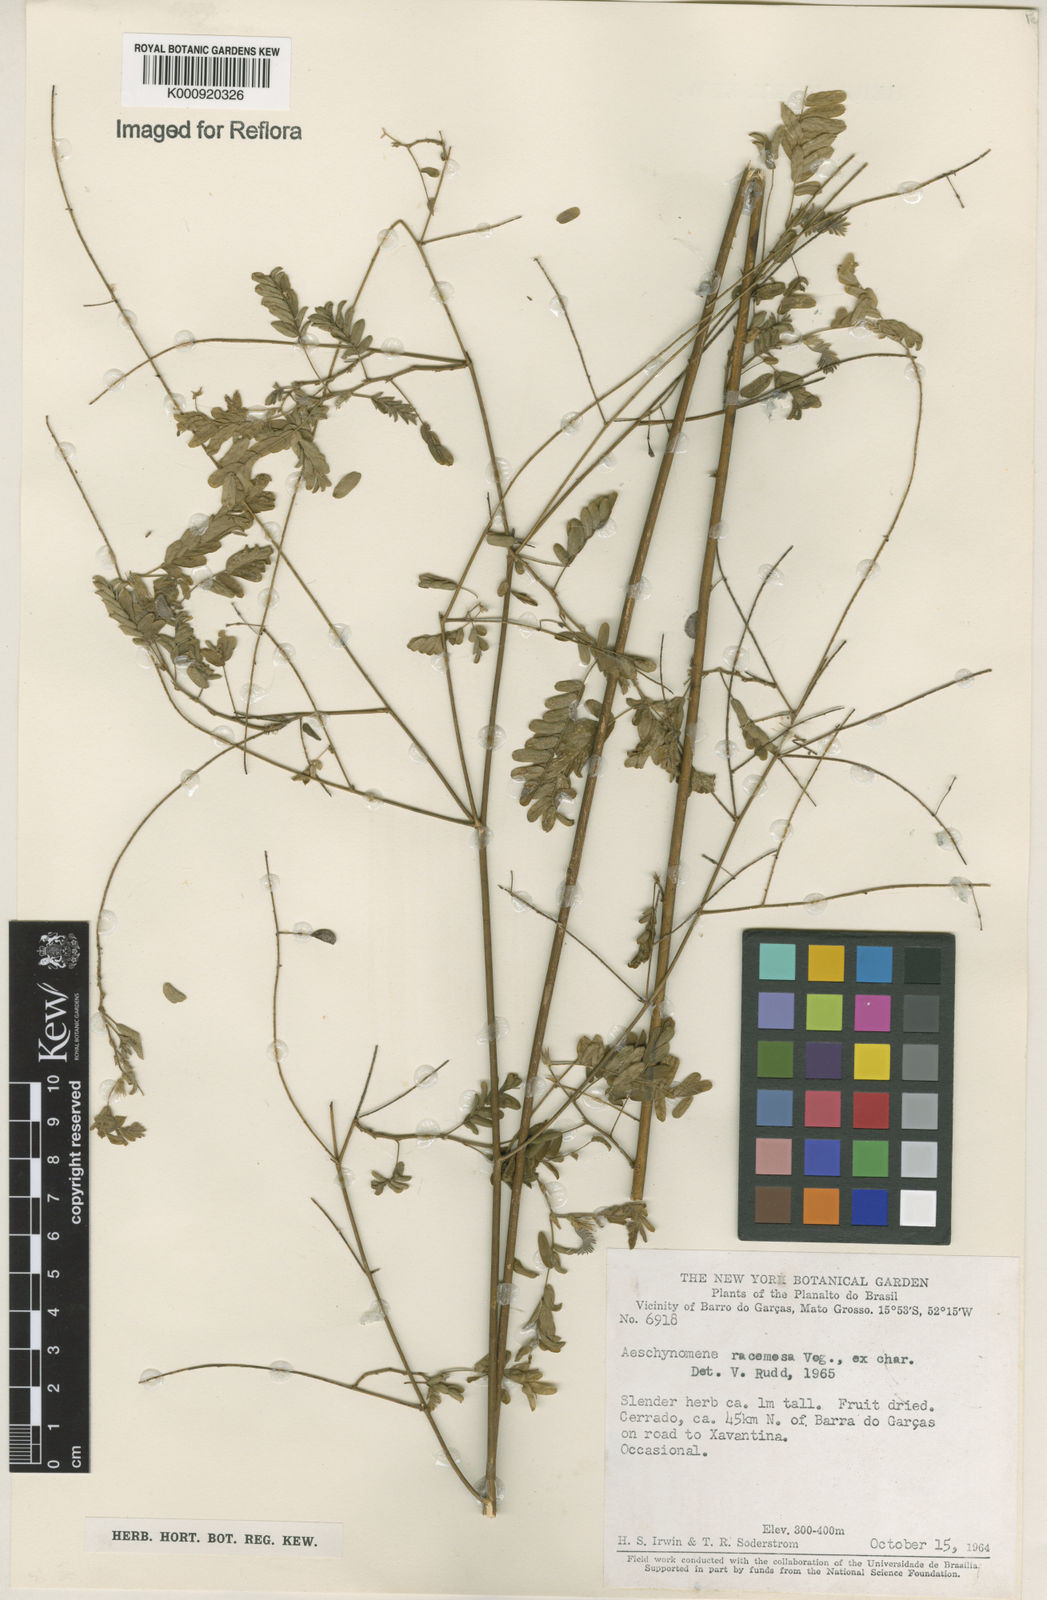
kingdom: Plantae
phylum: Tracheophyta
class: Magnoliopsida
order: Fabales
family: Fabaceae
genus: Ctenodon
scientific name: Ctenodon racemosus
